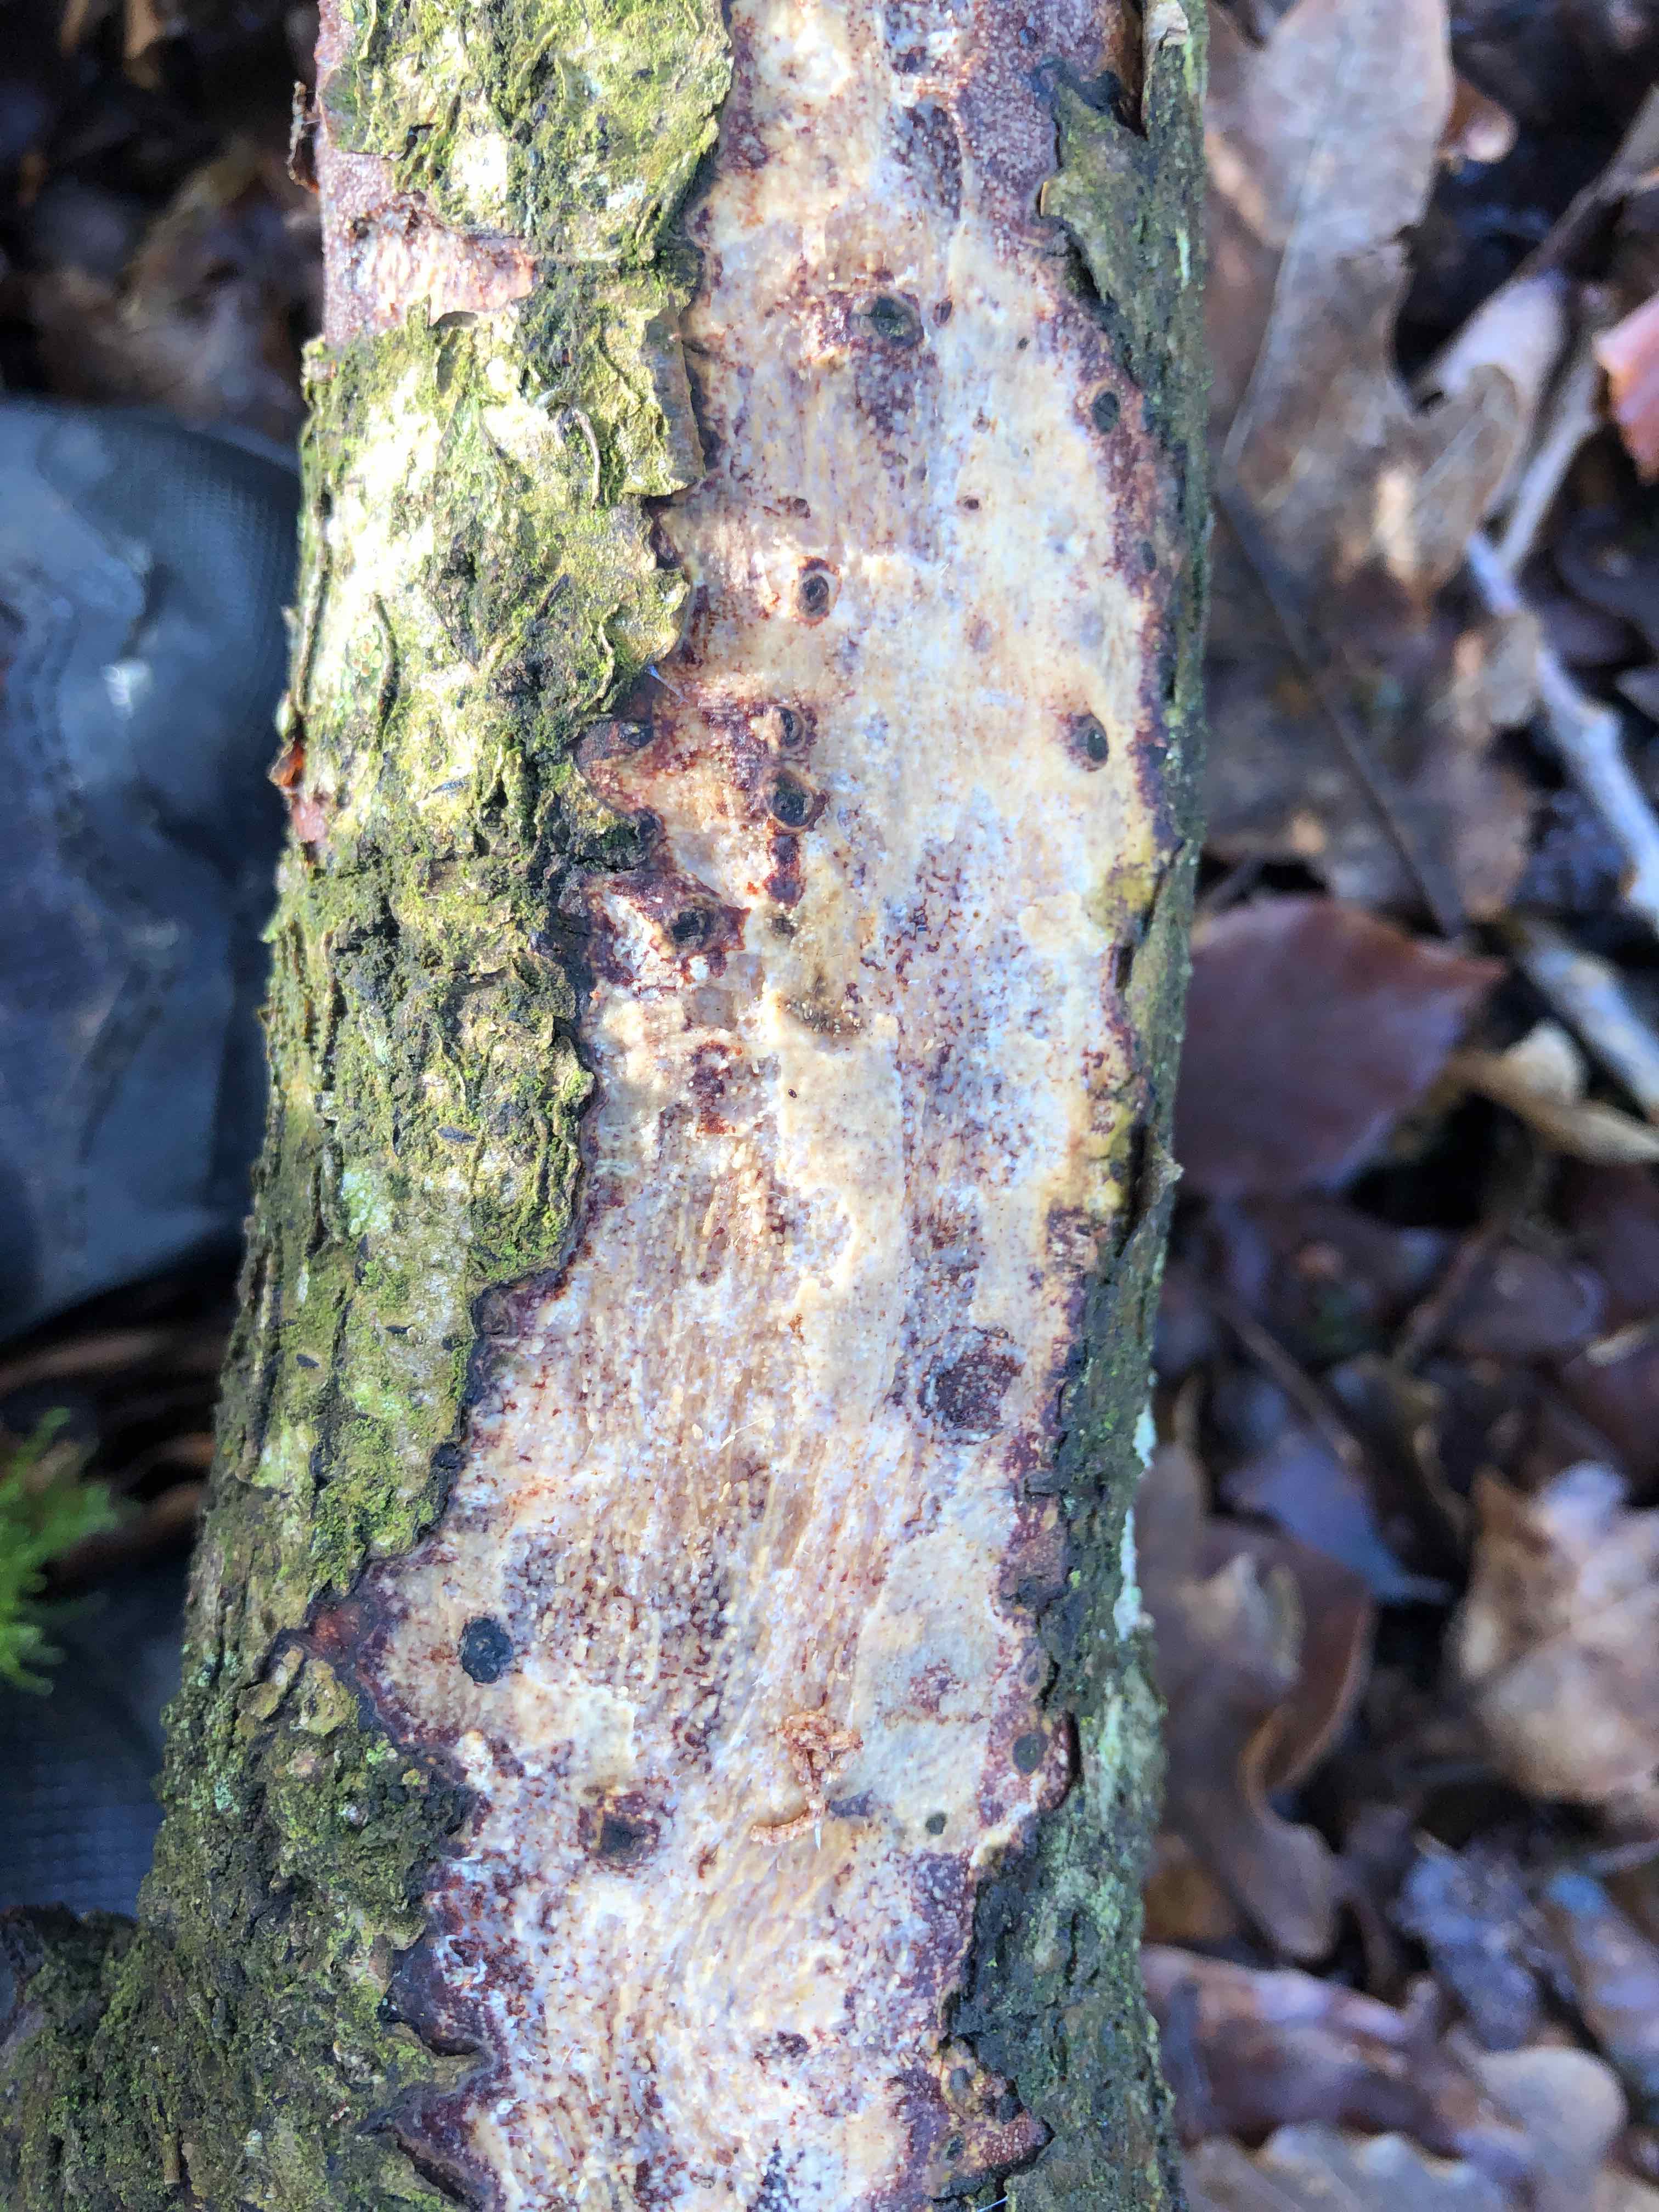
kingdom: Fungi
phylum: Basidiomycota
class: Agaricomycetes
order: Corticiales
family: Vuilleminiaceae
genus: Vuilleminia
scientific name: Vuilleminia comedens
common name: almindelig barksprænger
